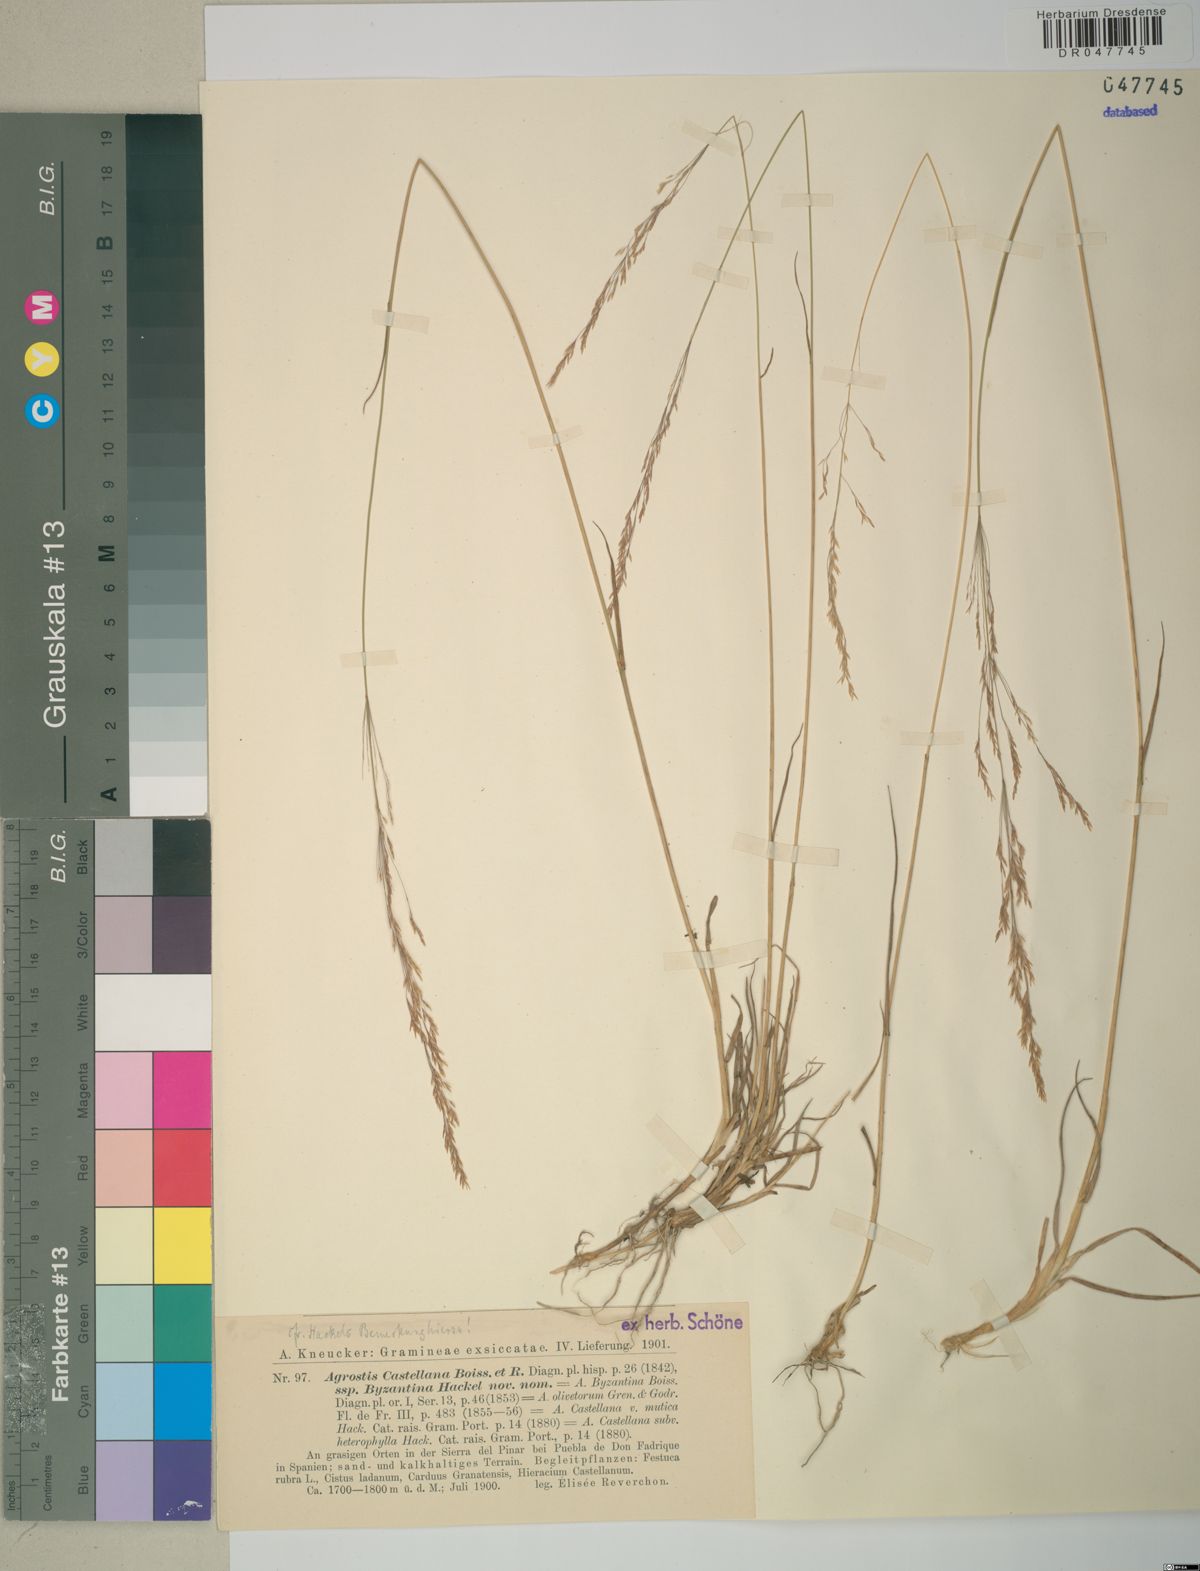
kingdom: Plantae
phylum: Tracheophyta
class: Liliopsida
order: Poales
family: Poaceae
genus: Agrostis
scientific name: Agrostis castellana
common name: Highland bent
